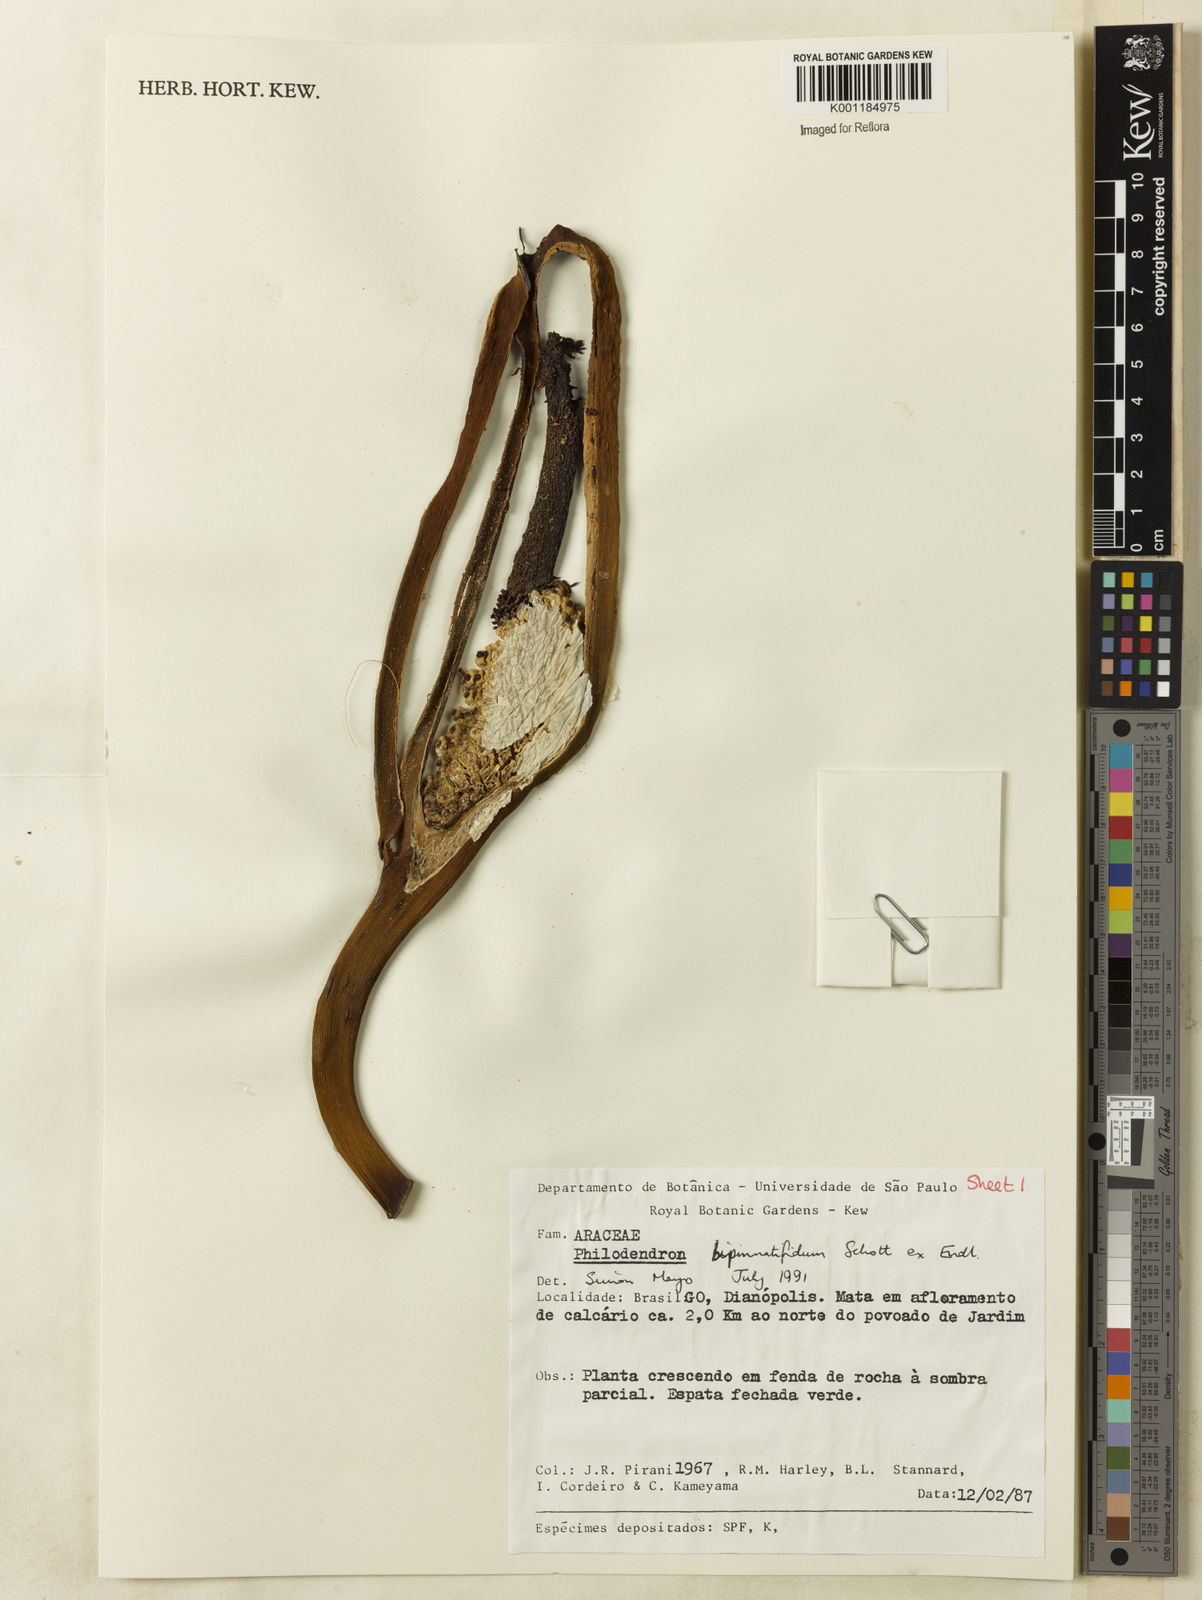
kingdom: Plantae
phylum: Tracheophyta
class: Liliopsida
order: Alismatales
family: Araceae
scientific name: Araceae
